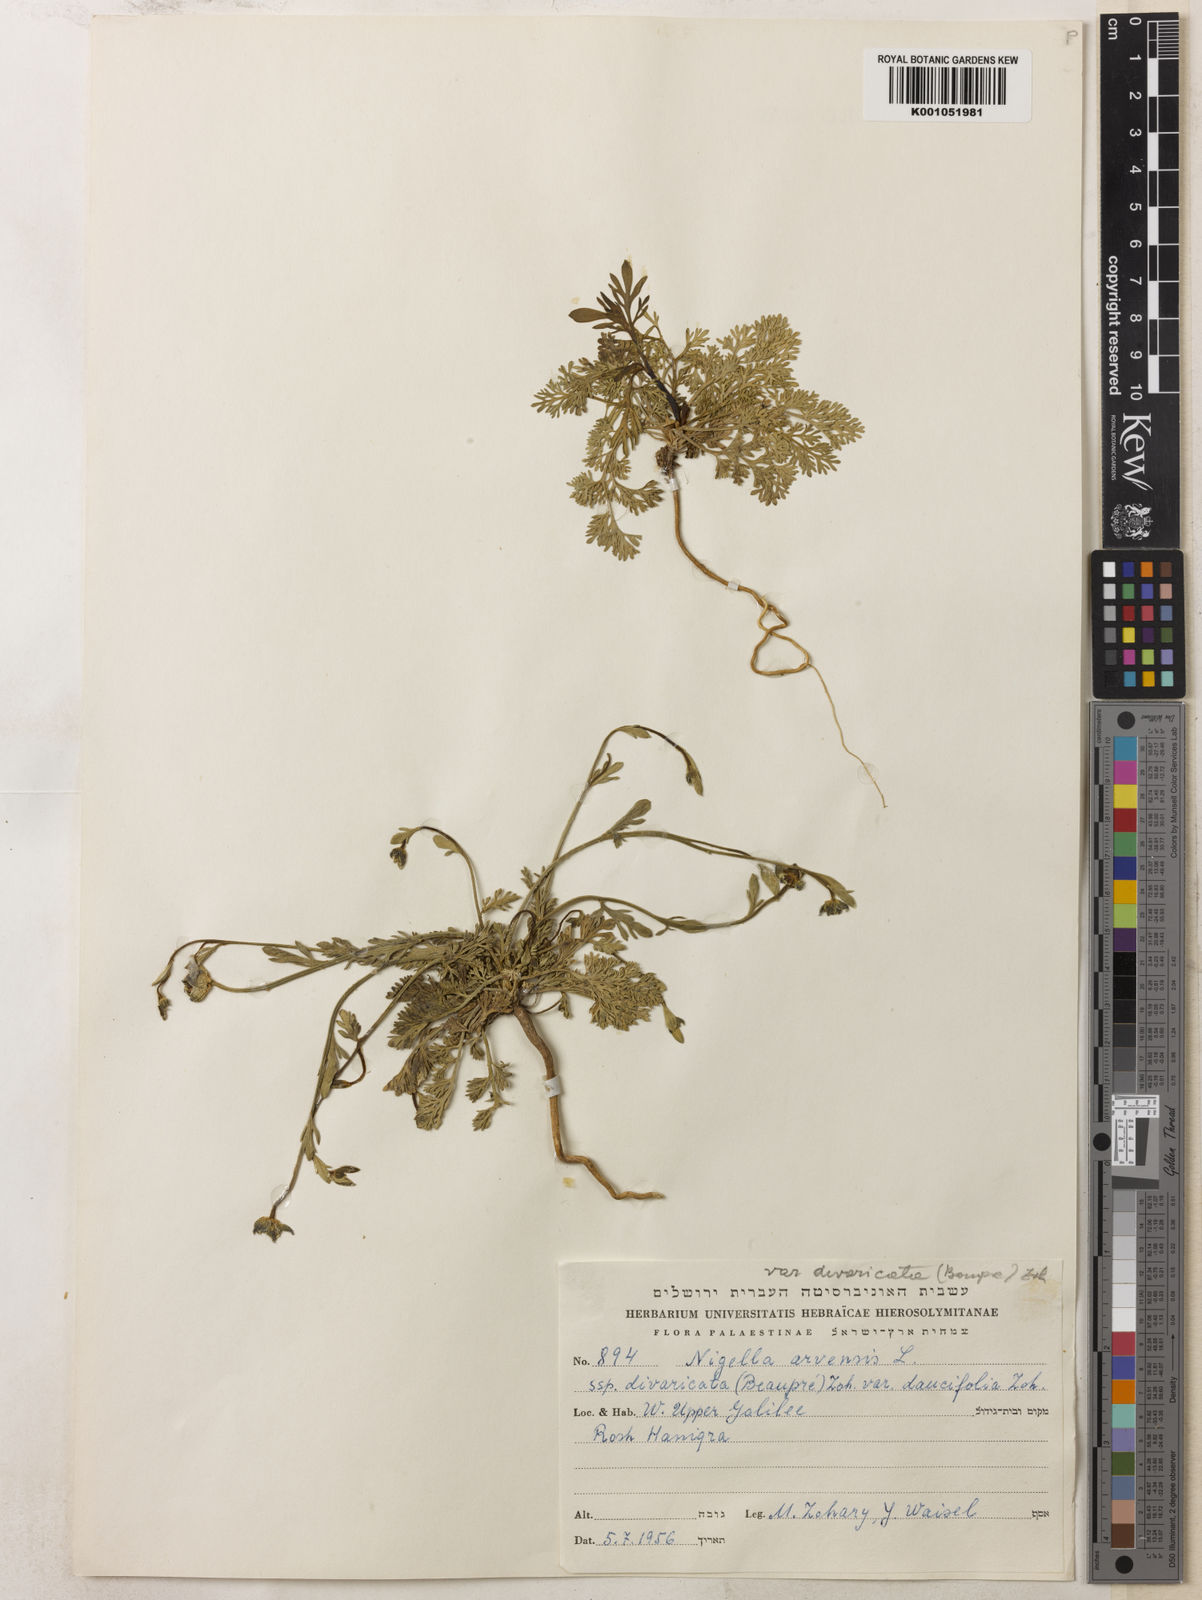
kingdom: Plantae
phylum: Tracheophyta
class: Magnoliopsida
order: Ranunculales
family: Ranunculaceae
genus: Nigella
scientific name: Nigella arvensis
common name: Wild fennel-flower
